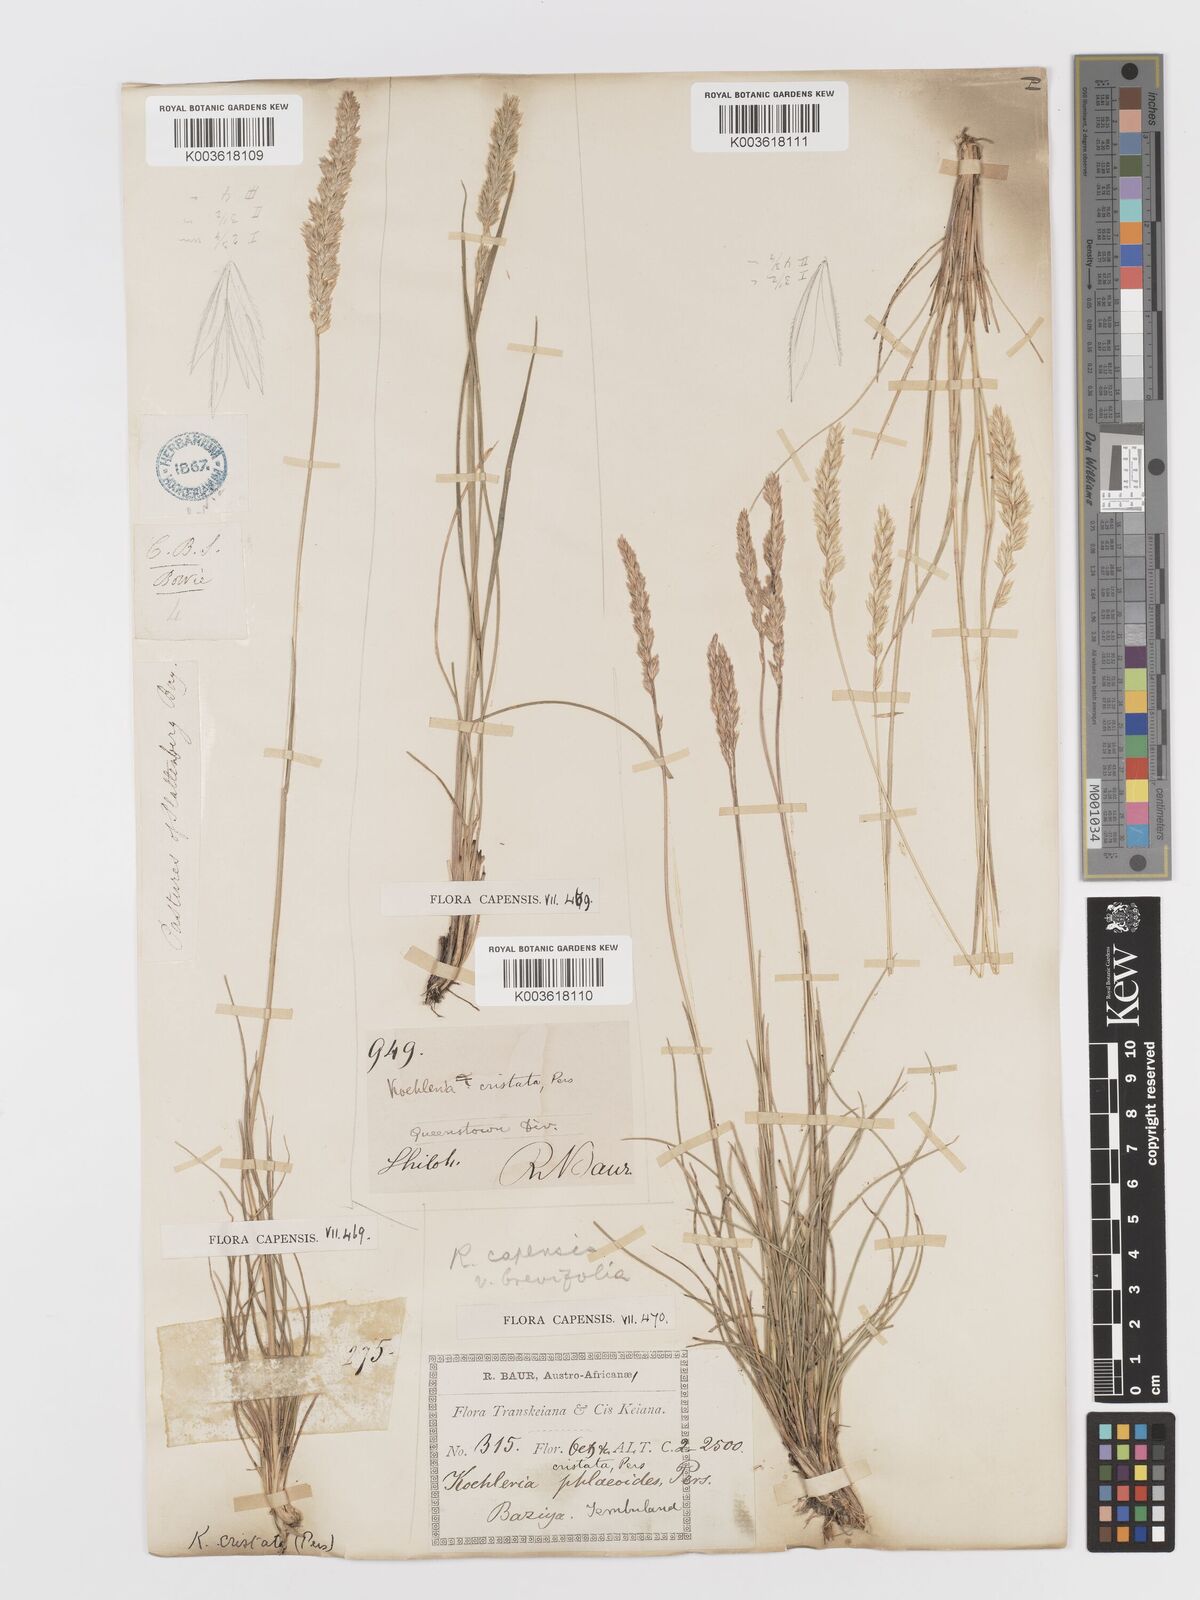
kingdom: Plantae
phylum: Tracheophyta
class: Liliopsida
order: Poales
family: Poaceae
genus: Koeleria
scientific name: Koeleria capensis
